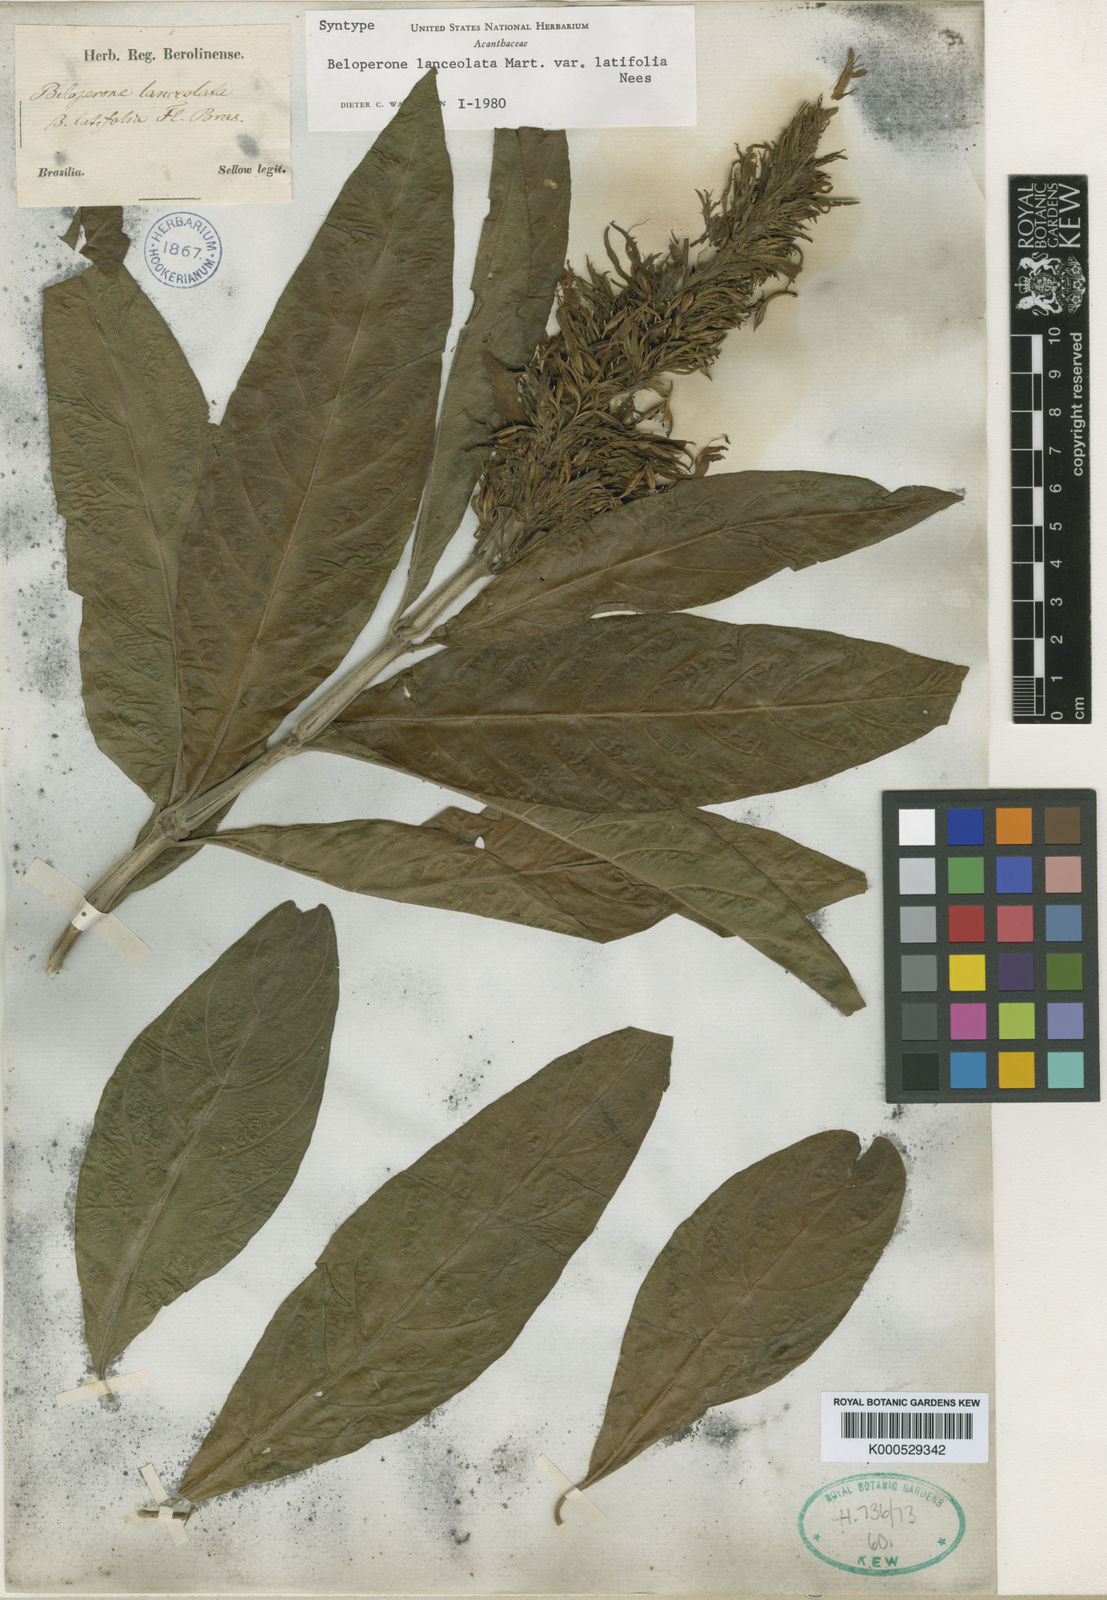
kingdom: Plantae
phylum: Tracheophyta
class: Magnoliopsida
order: Lamiales
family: Acanthaceae
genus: Justicia
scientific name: Justicia minensis
